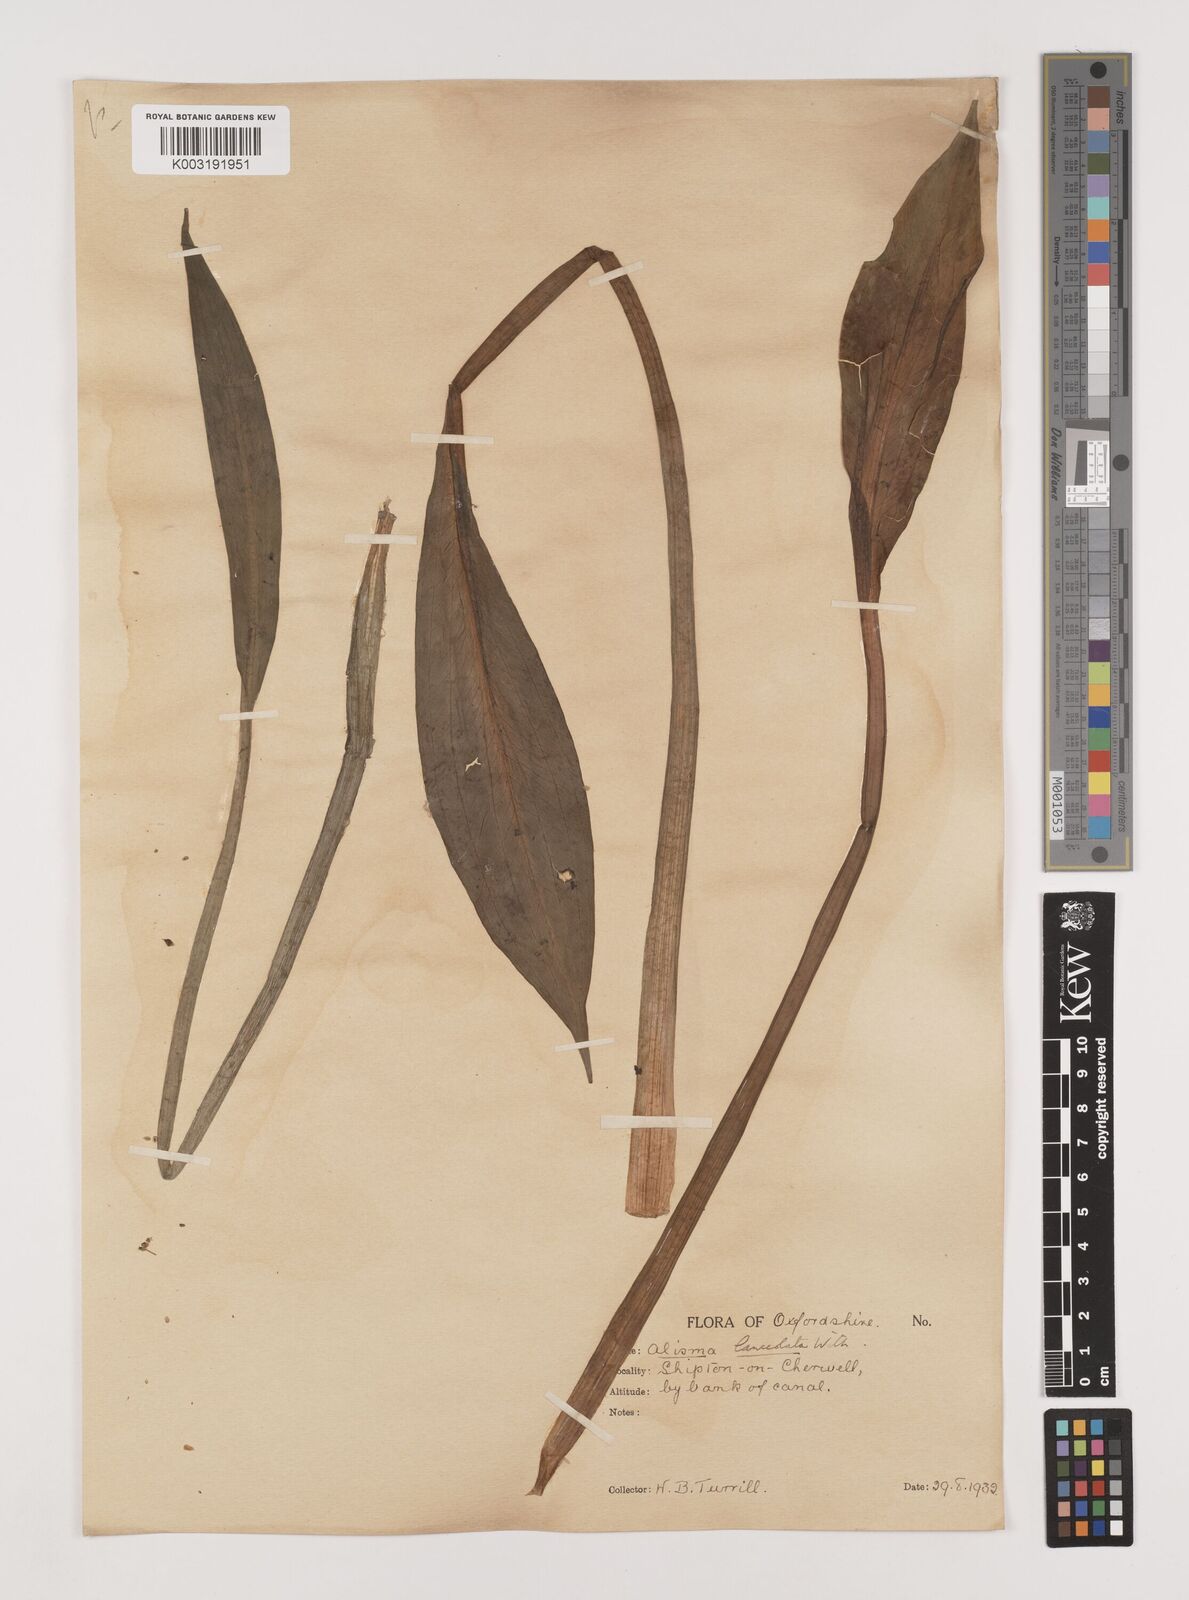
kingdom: Plantae
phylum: Tracheophyta
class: Liliopsida
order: Alismatales
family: Alismataceae
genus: Alisma
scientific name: Alisma lanceolatum
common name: Narrow-leaved water-plantain
